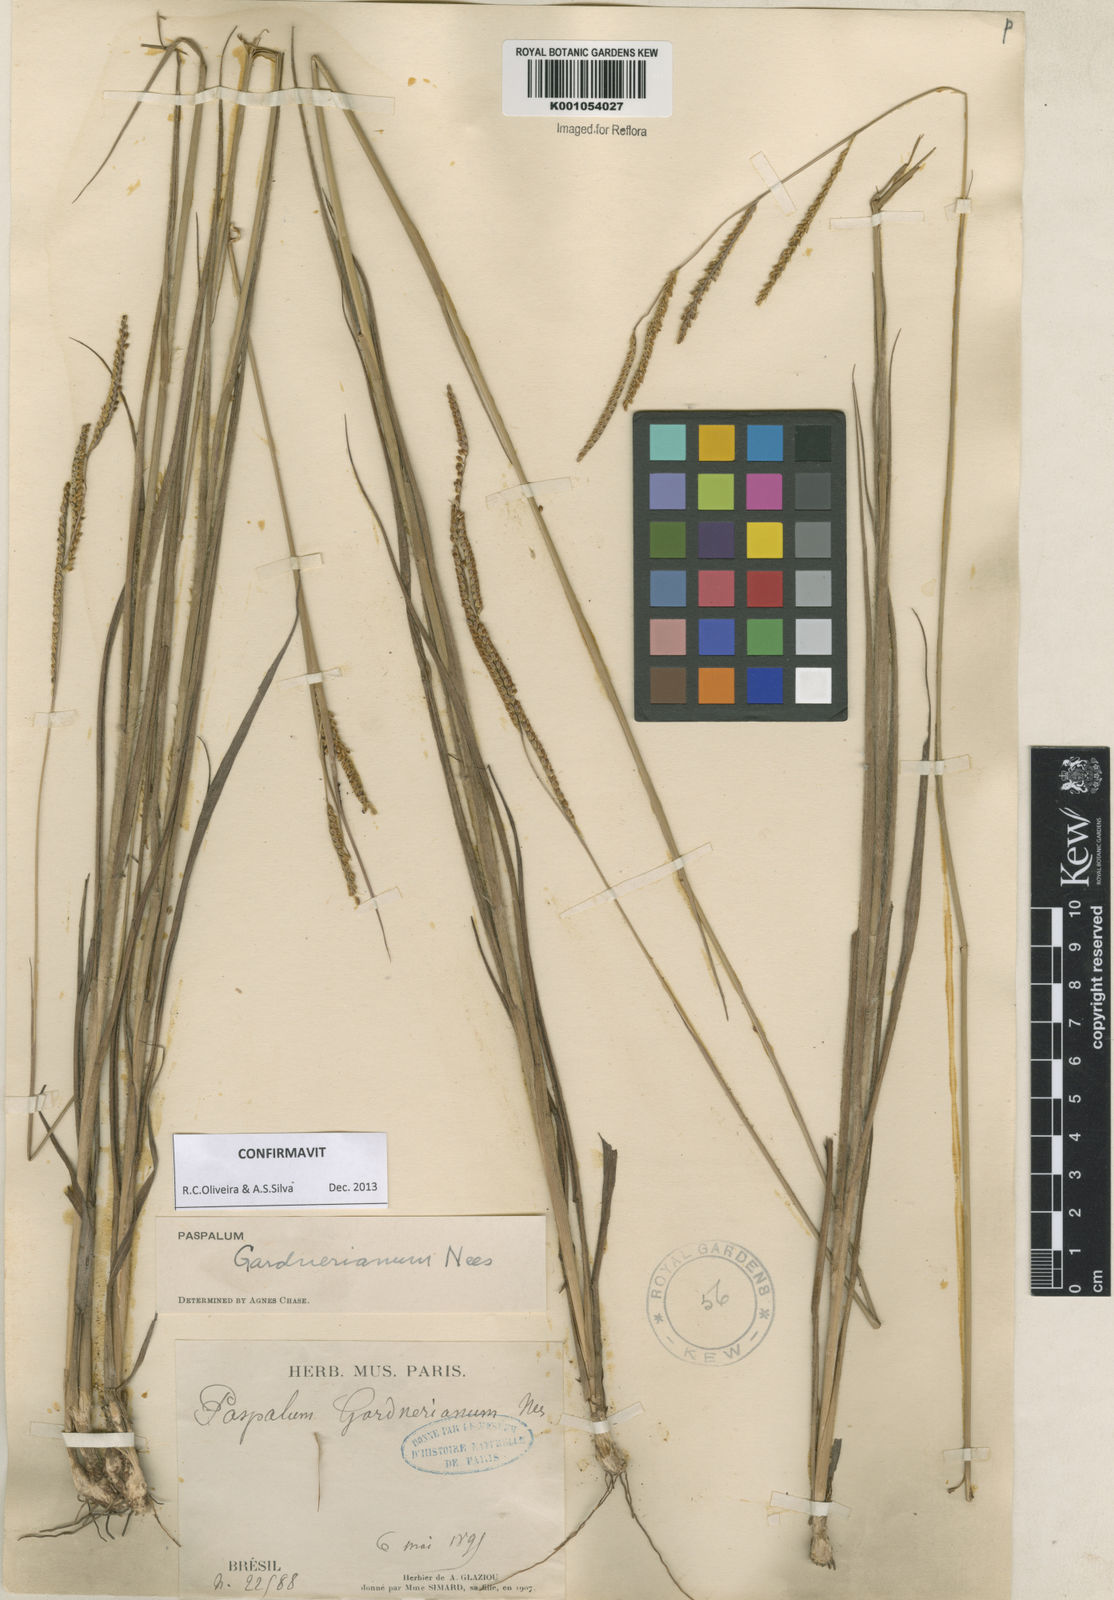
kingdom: Plantae
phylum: Tracheophyta
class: Liliopsida
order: Poales
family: Poaceae
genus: Paspalum
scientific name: Paspalum gardnerianum
